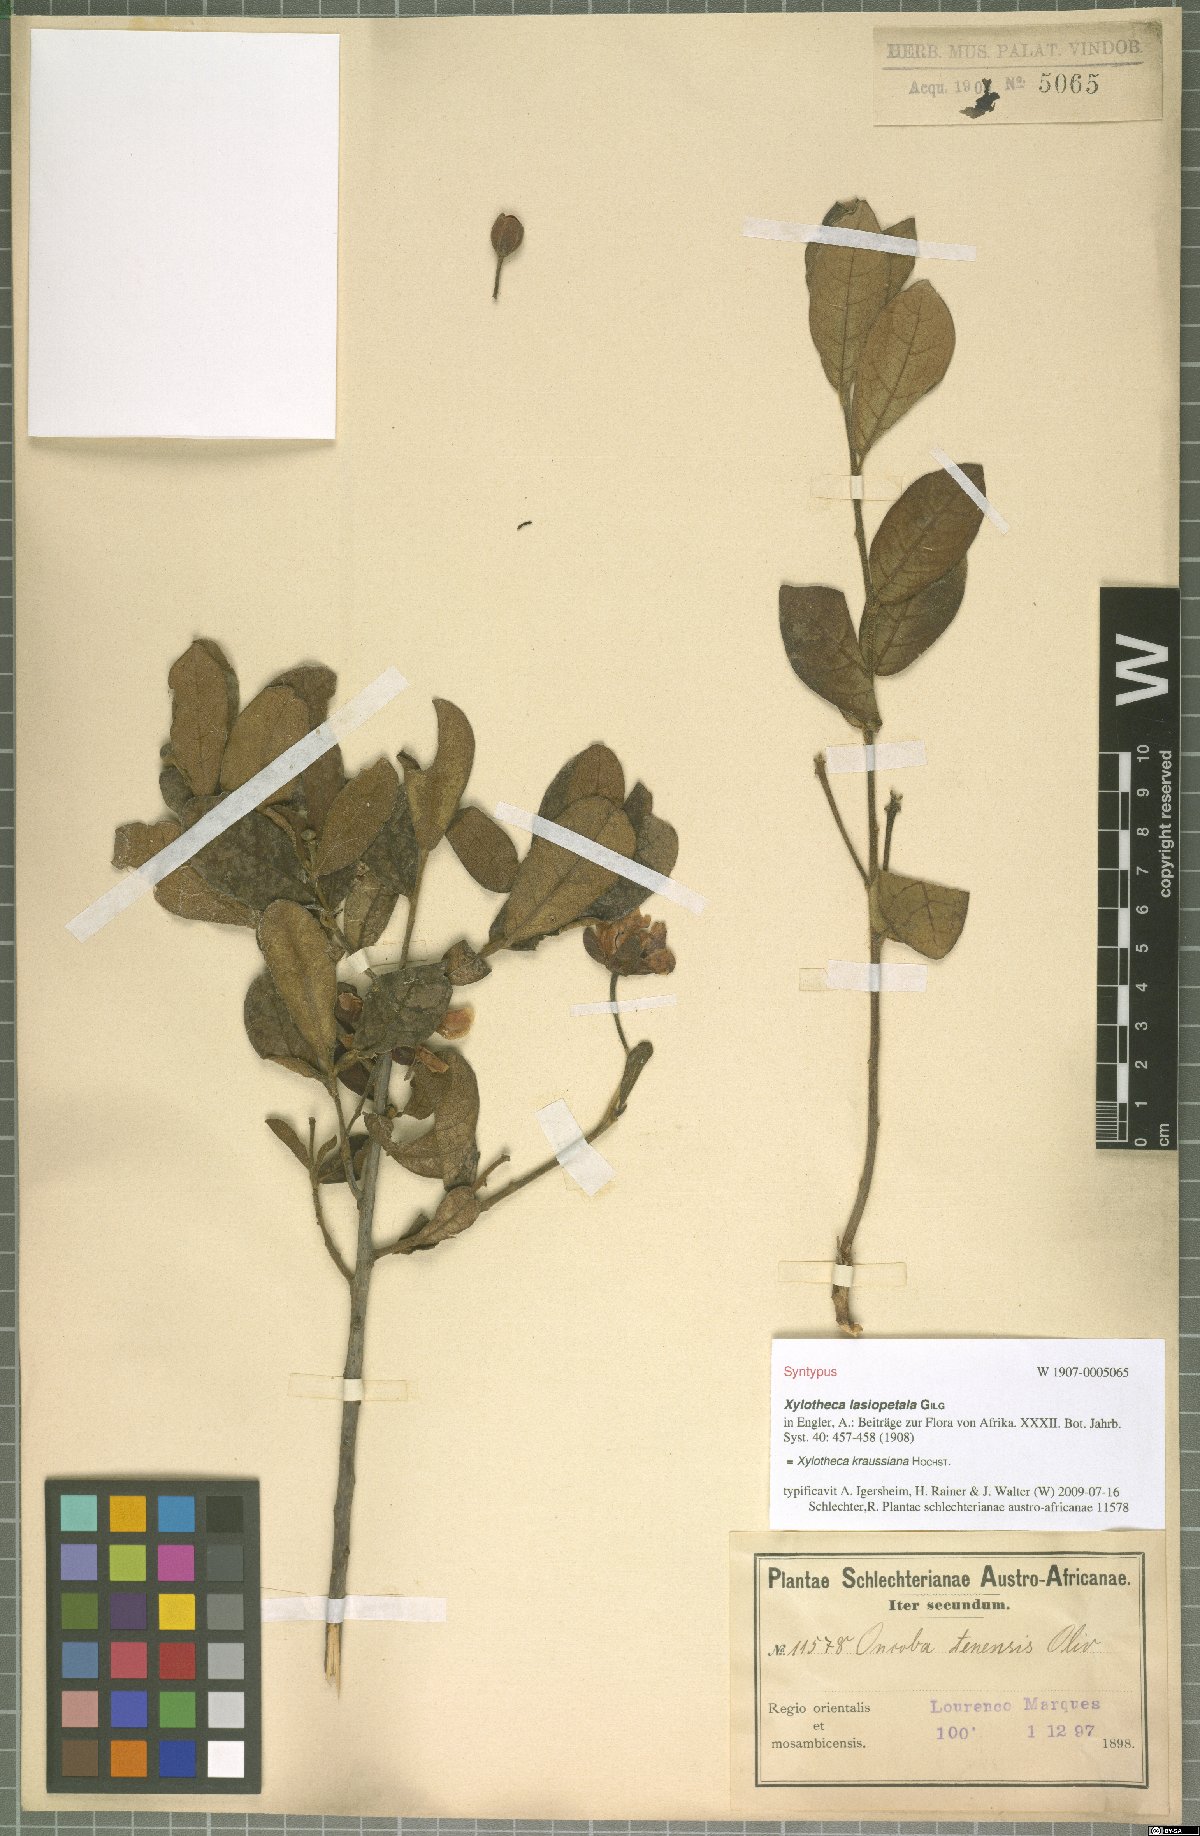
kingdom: Plantae
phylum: Tracheophyta
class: Magnoliopsida
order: Malpighiales
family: Achariaceae
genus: Xylotheca
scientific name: Xylotheca kraussiana
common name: African dog rose
